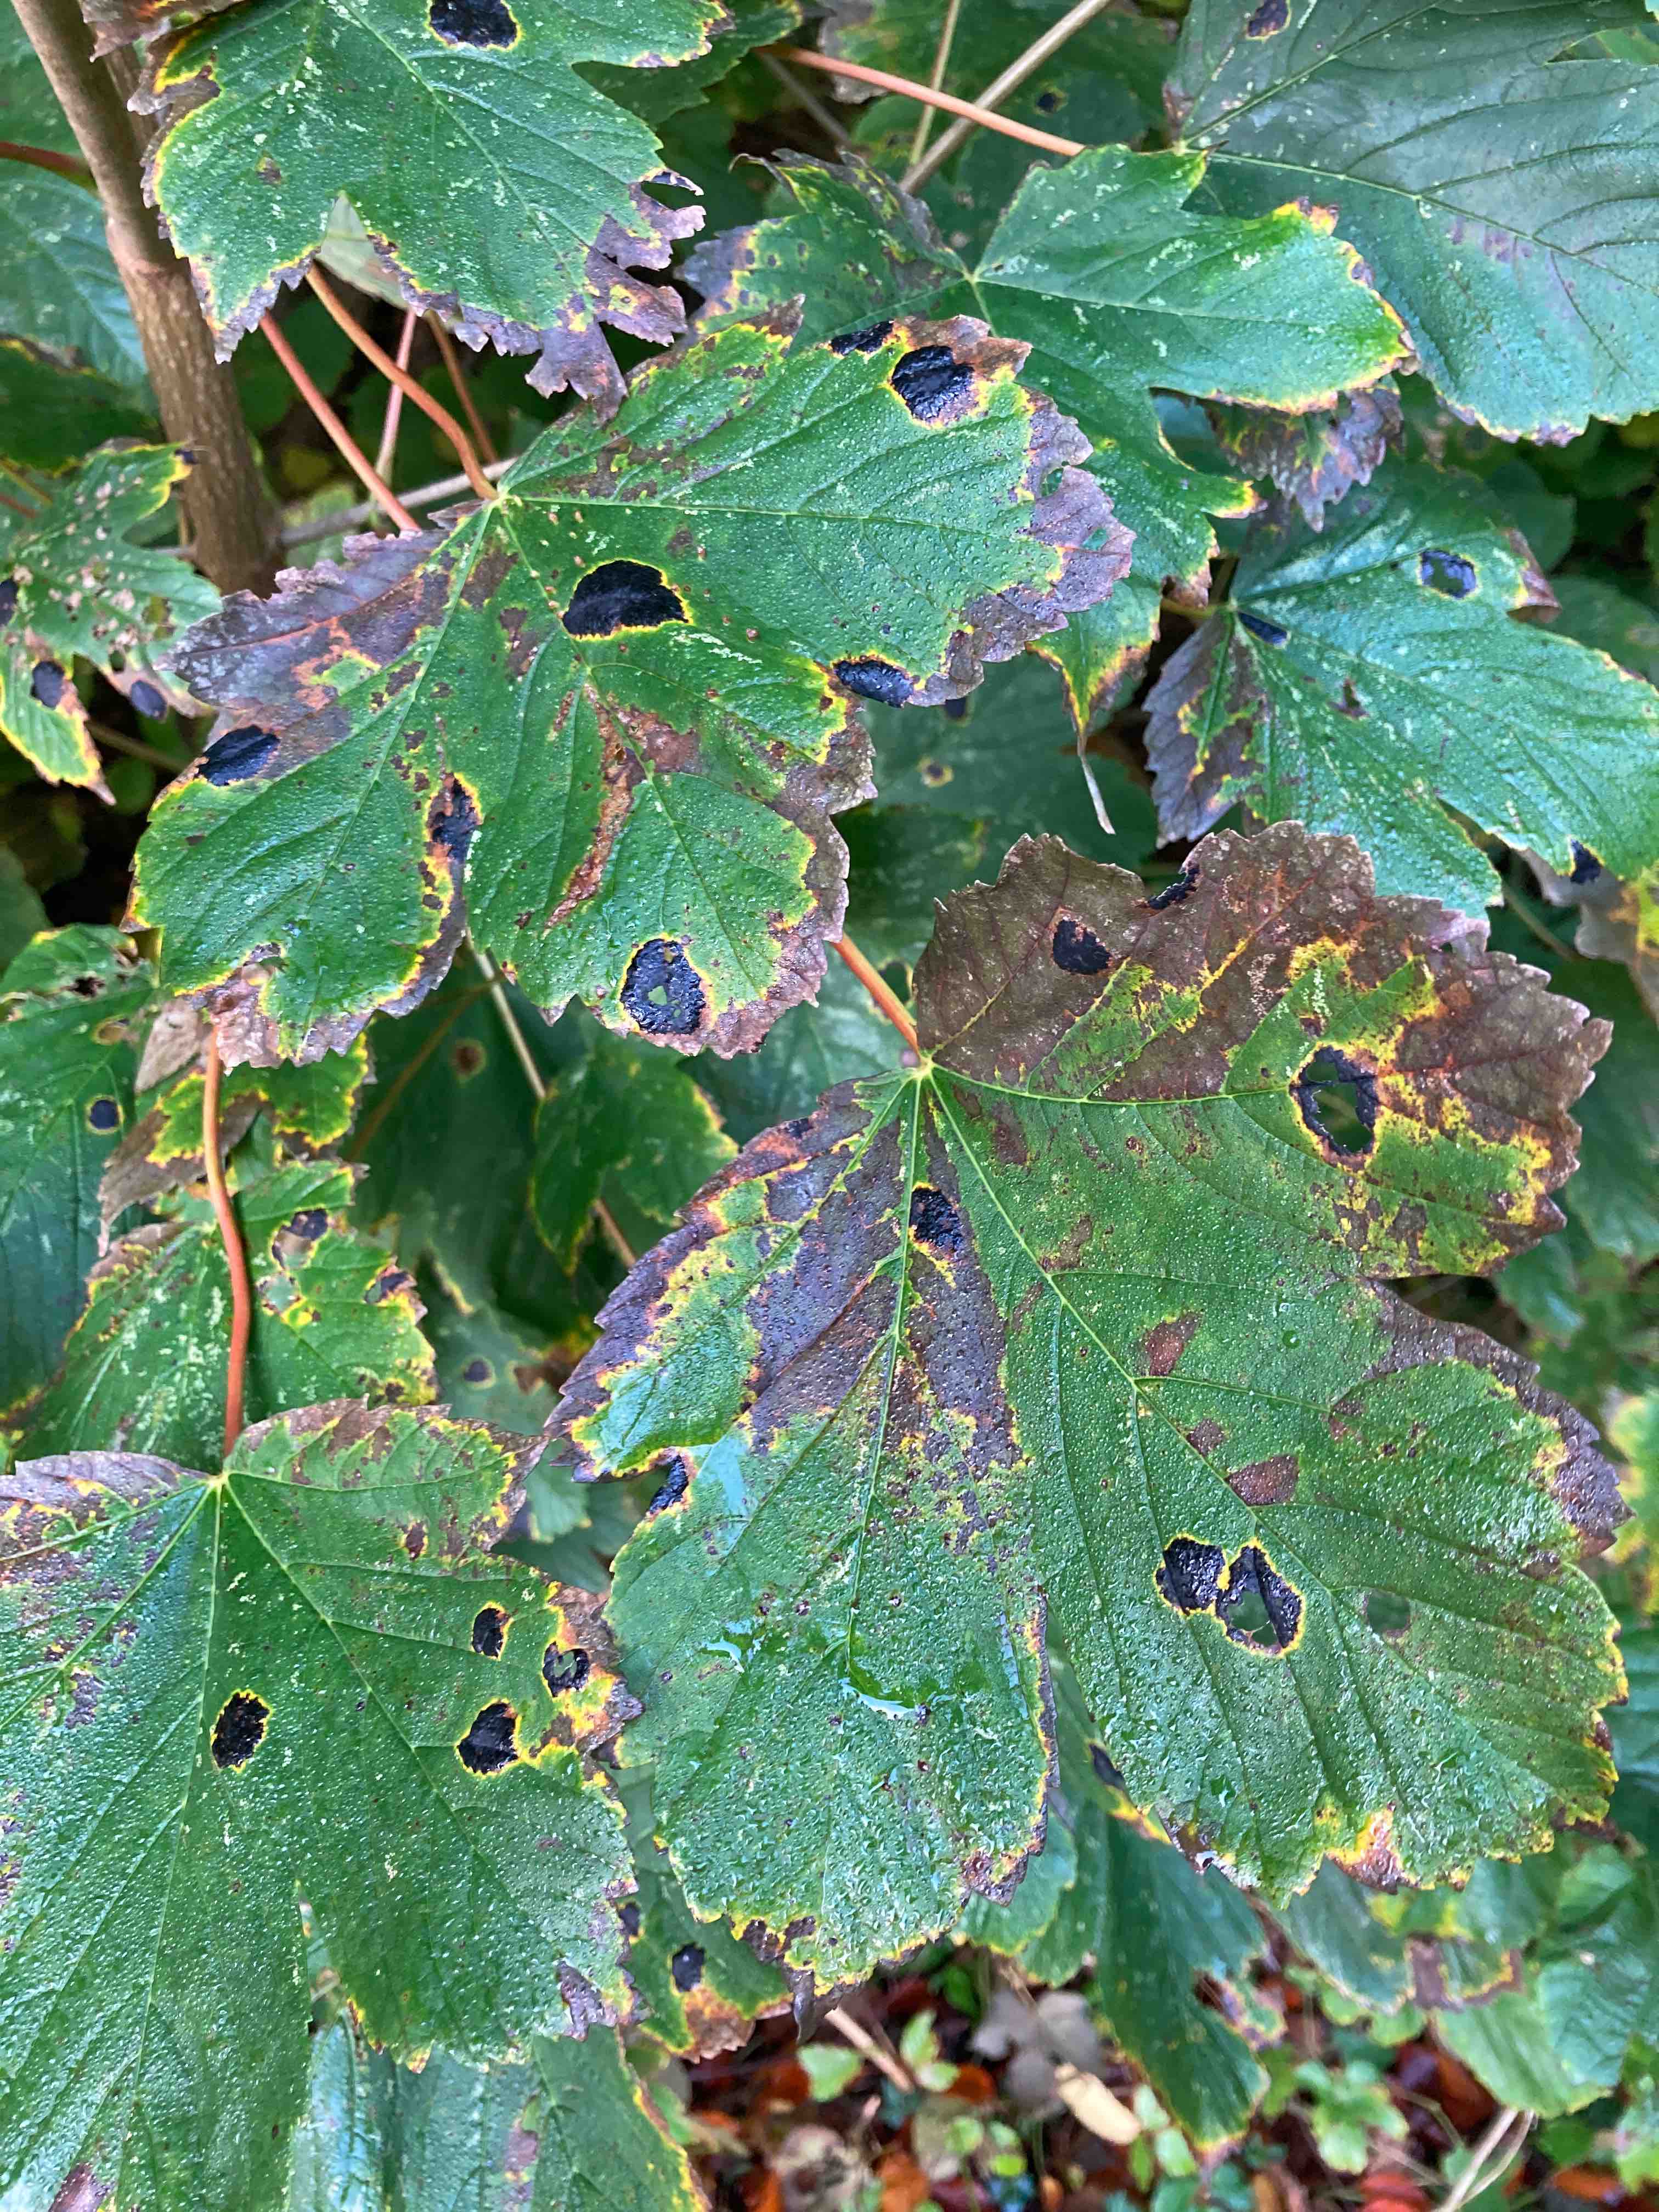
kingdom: Fungi
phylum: Ascomycota
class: Leotiomycetes
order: Rhytismatales
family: Rhytismataceae
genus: Rhytisma
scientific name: Rhytisma acerinum
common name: ahorn-rynkeplet
